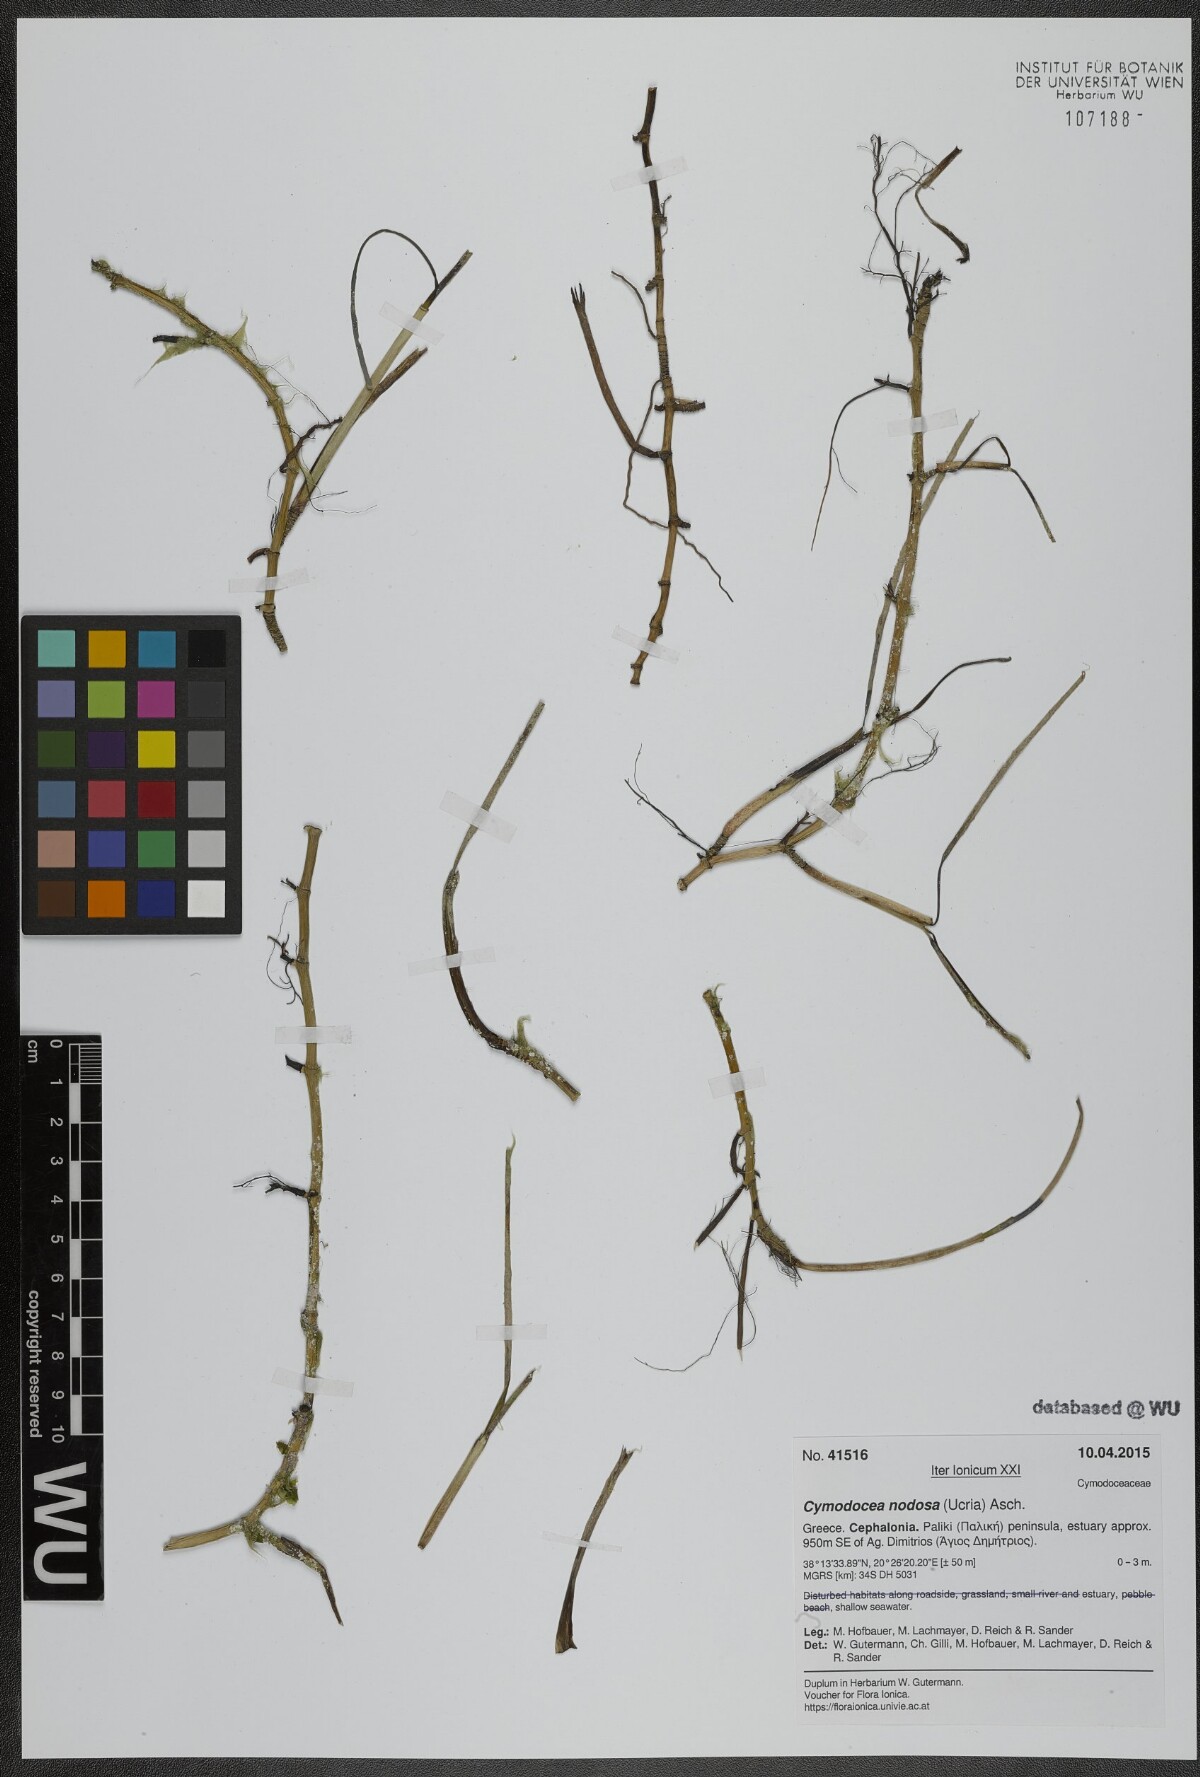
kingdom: Plantae
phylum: Tracheophyta
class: Liliopsida
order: Alismatales
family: Cymodoceaceae
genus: Cymodocea
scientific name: Cymodocea nodosa
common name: Slender seagrass
